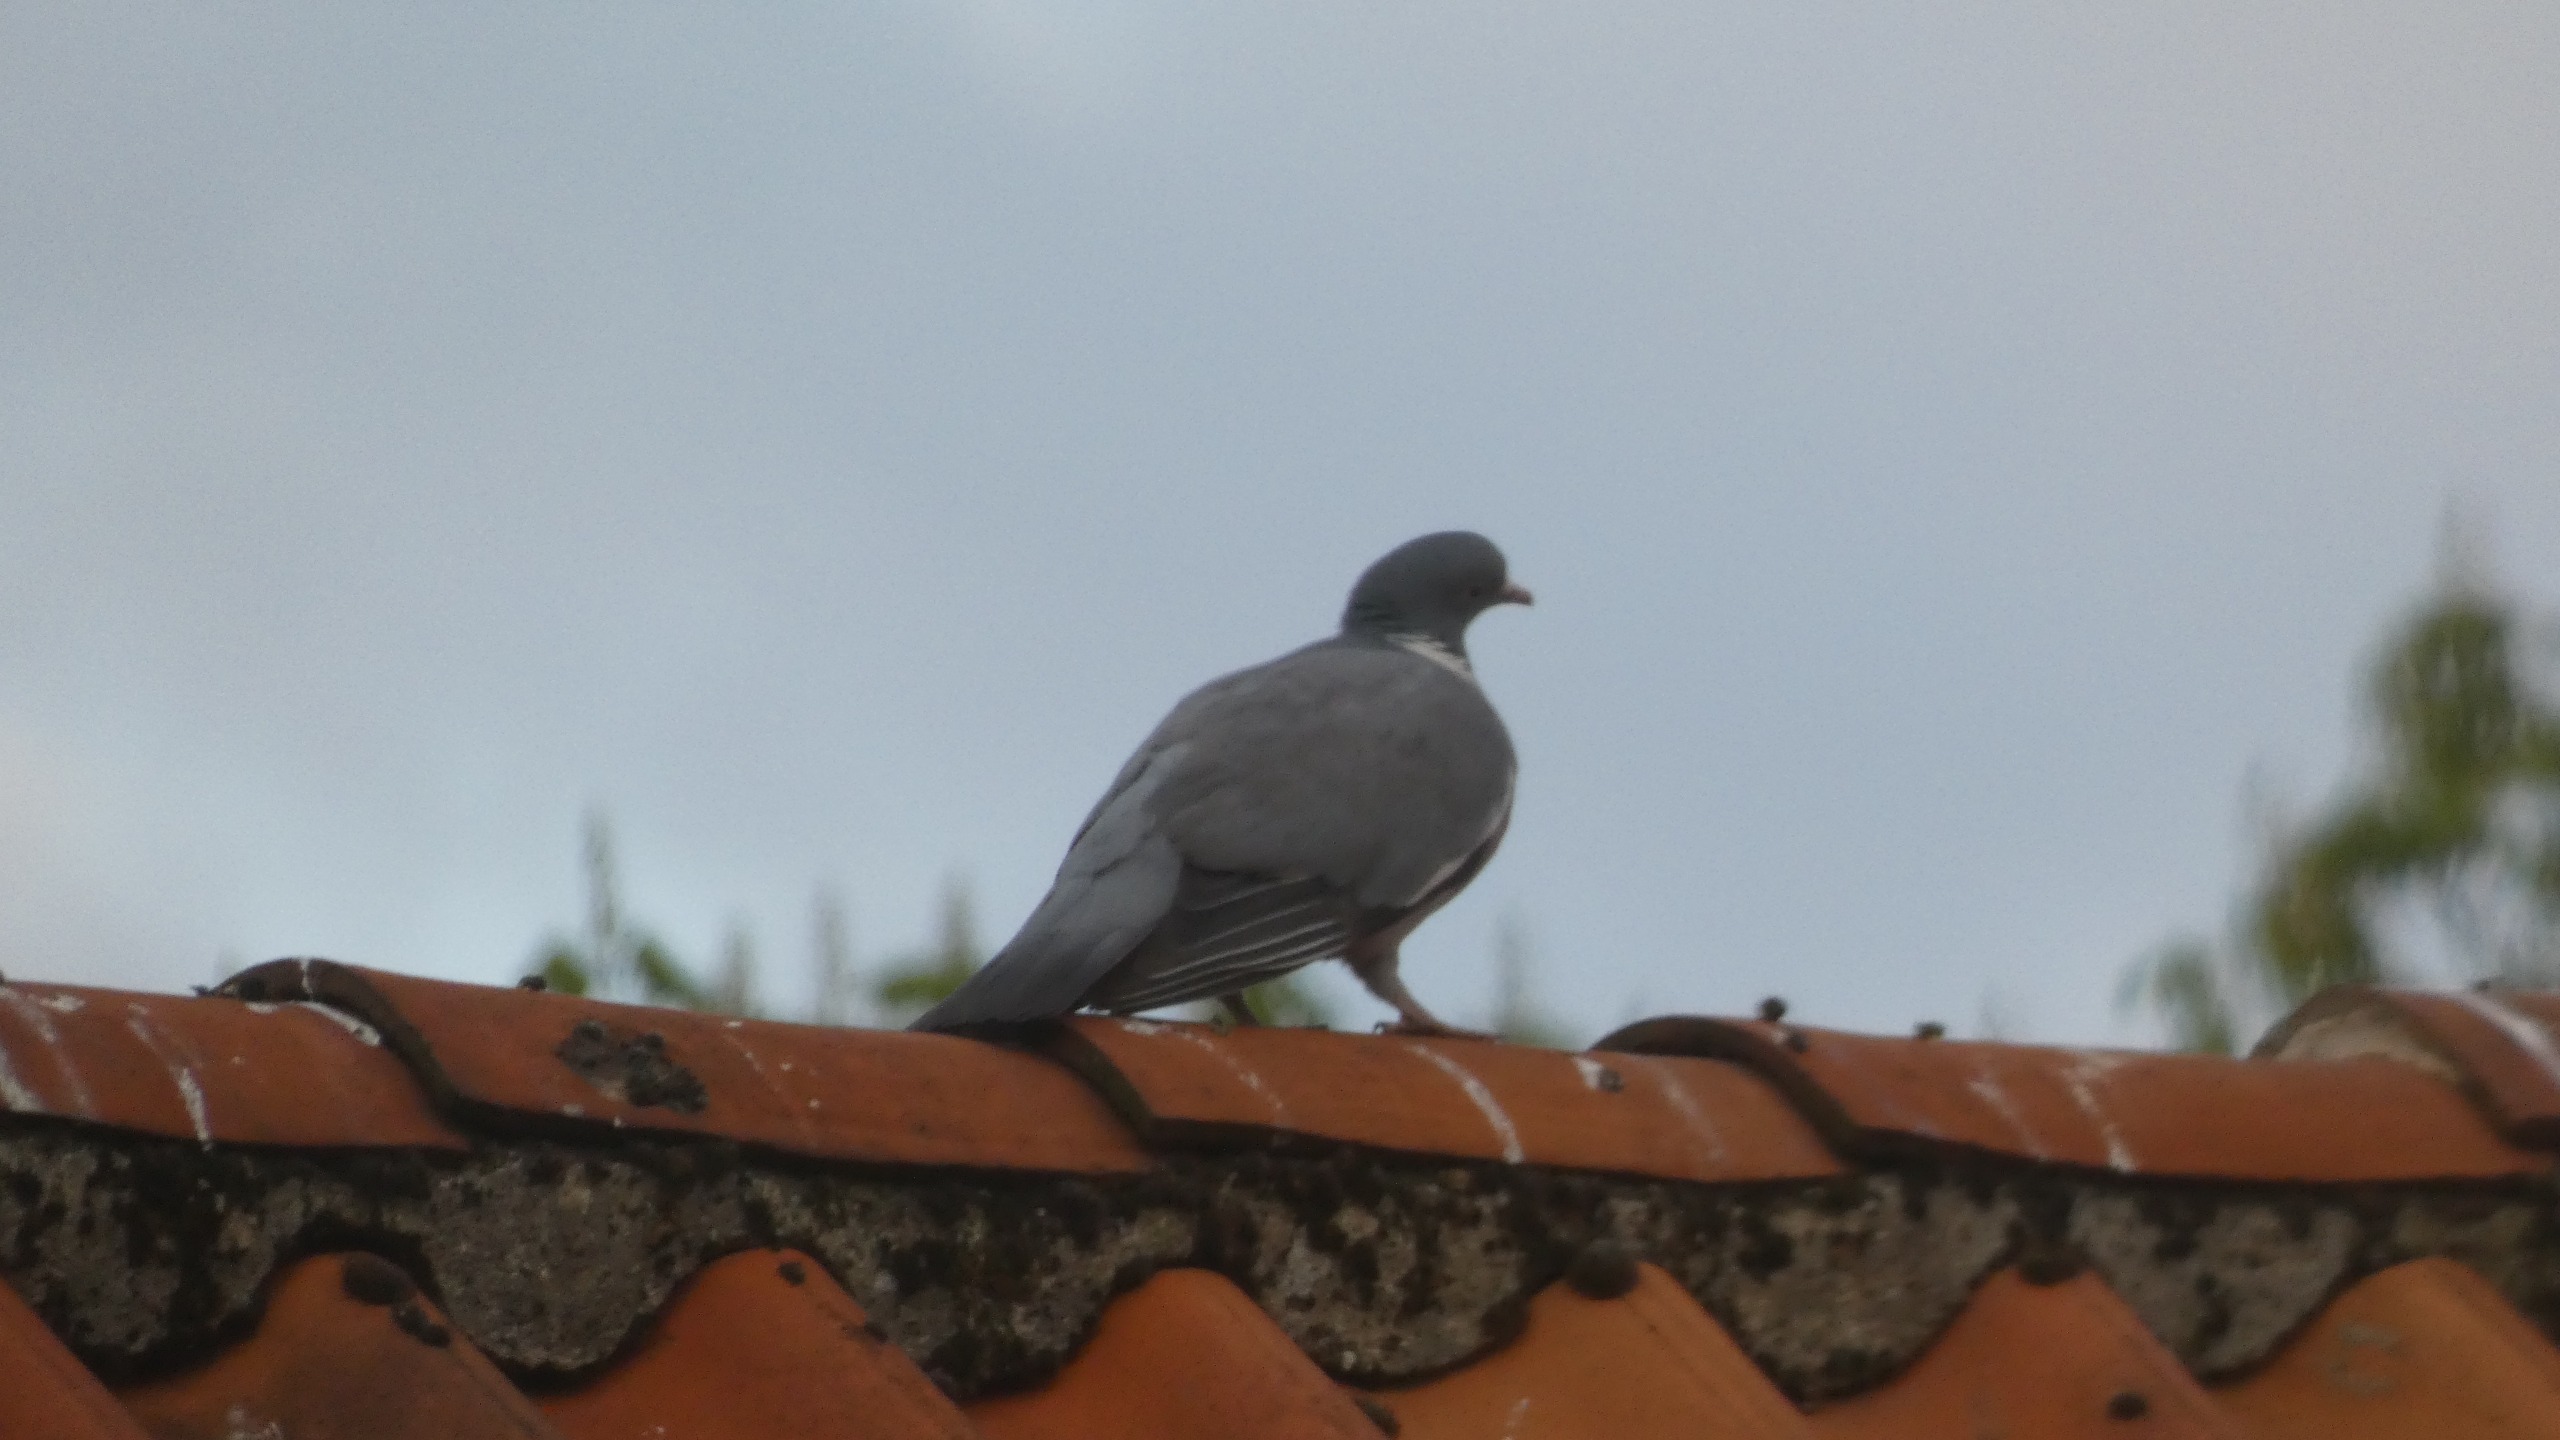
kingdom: Animalia
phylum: Chordata
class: Aves
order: Columbiformes
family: Columbidae
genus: Columba
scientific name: Columba palumbus
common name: Ringdue
